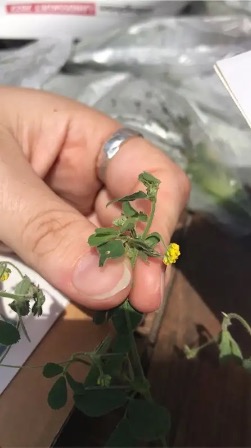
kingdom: Plantae
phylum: Tracheophyta
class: Magnoliopsida
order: Fabales
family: Fabaceae
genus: Medicago
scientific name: Medicago lupulina
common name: Humle-sneglebælg
